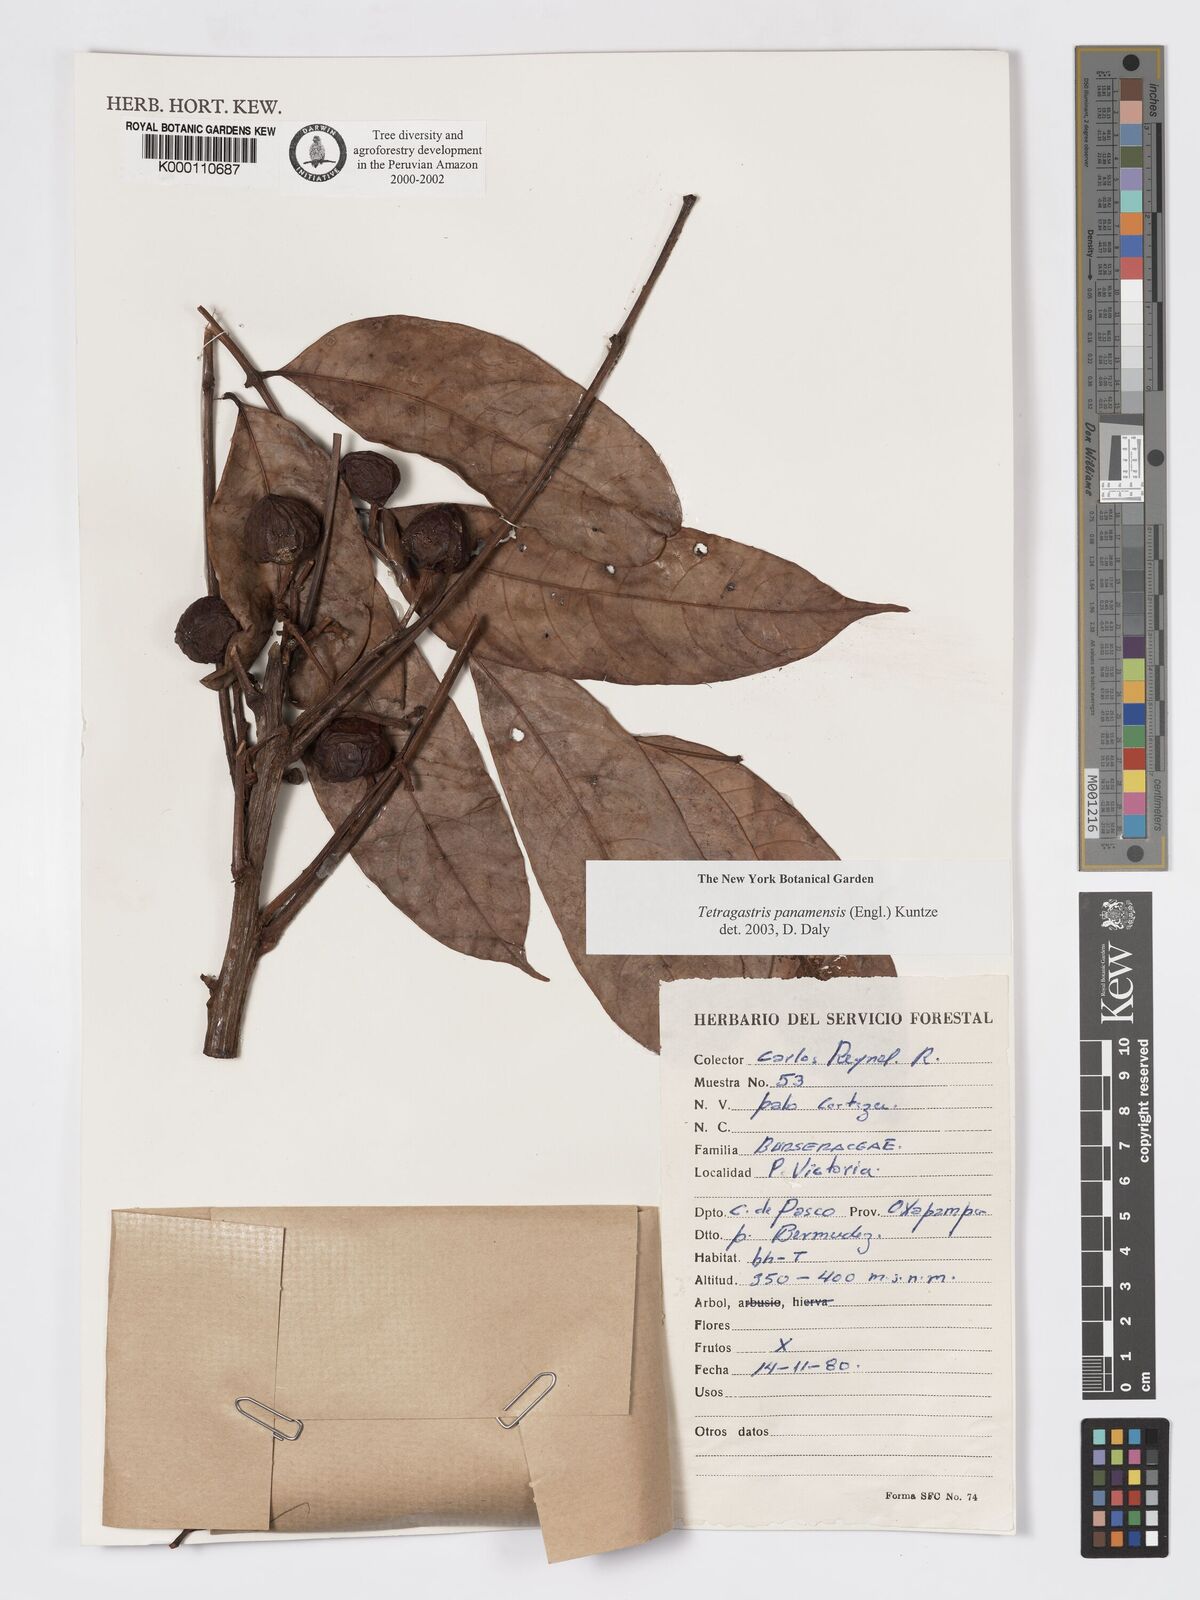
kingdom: Plantae
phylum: Tracheophyta
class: Magnoliopsida
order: Sapindales
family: Burseraceae
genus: Tetragastris
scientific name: Tetragastris panamensis
